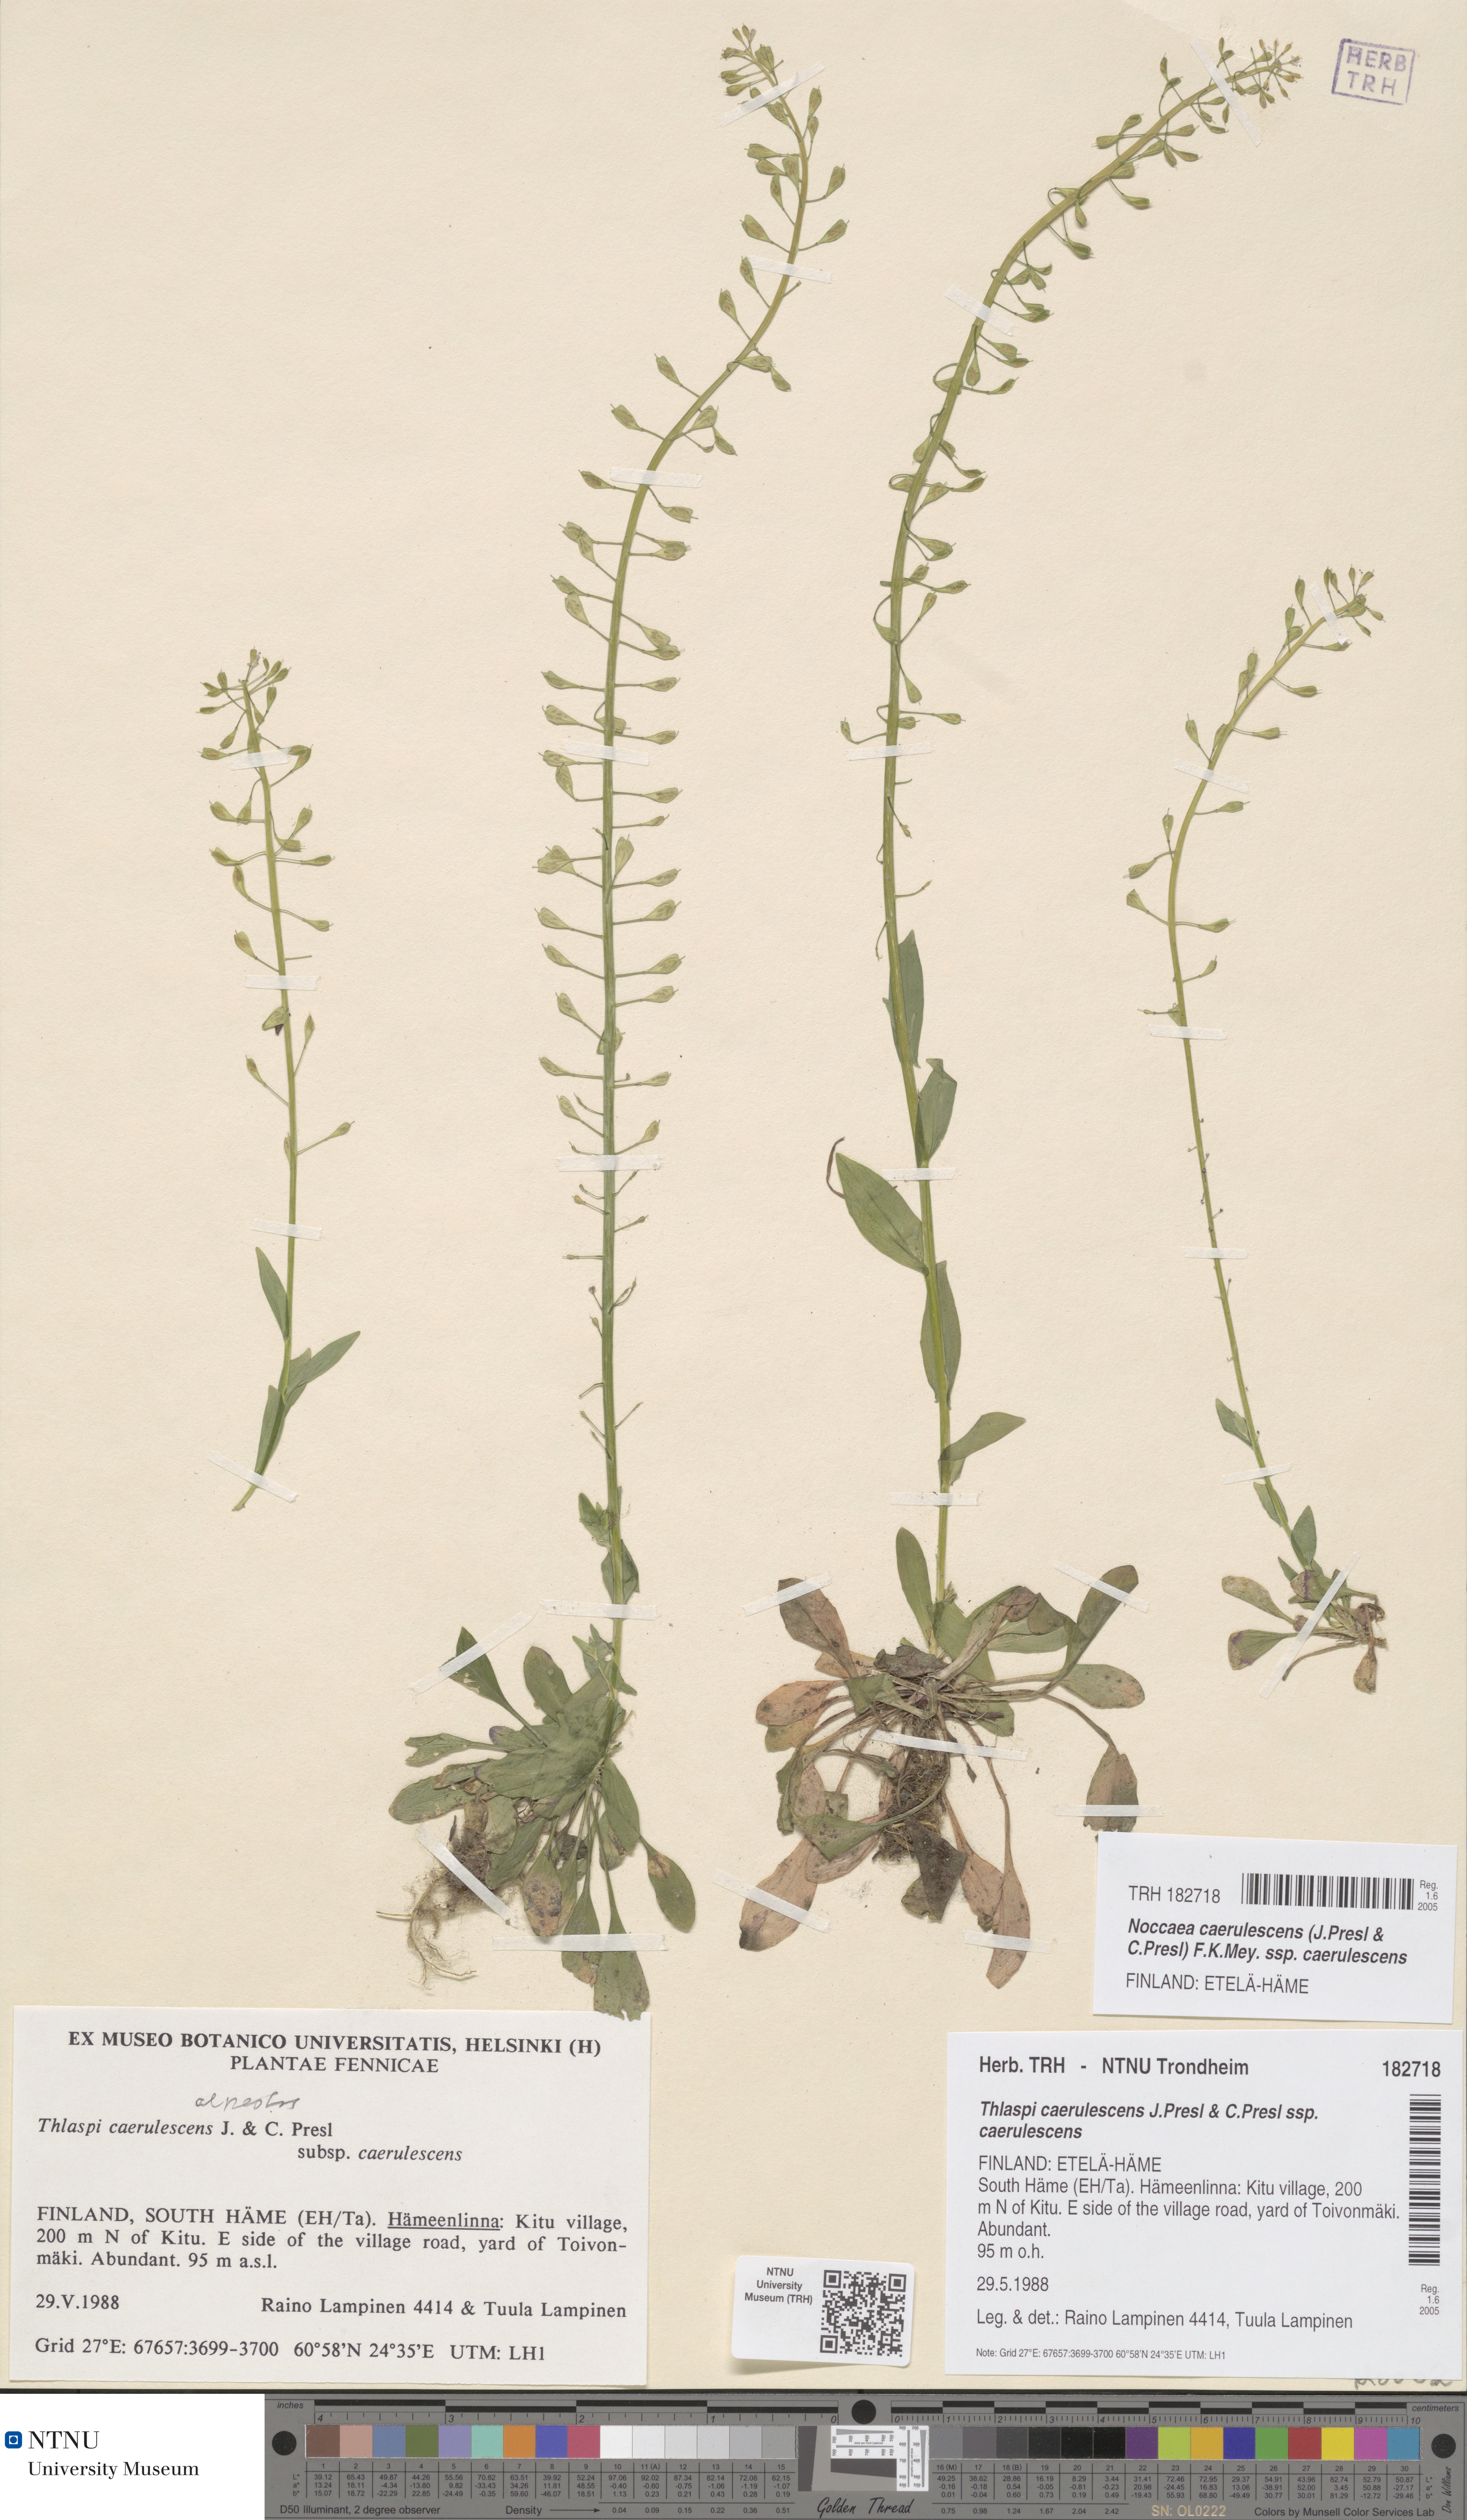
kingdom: Plantae
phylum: Tracheophyta
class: Magnoliopsida
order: Brassicales
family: Brassicaceae
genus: Noccaea
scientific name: Noccaea caerulescens
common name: Alpine pennycress
